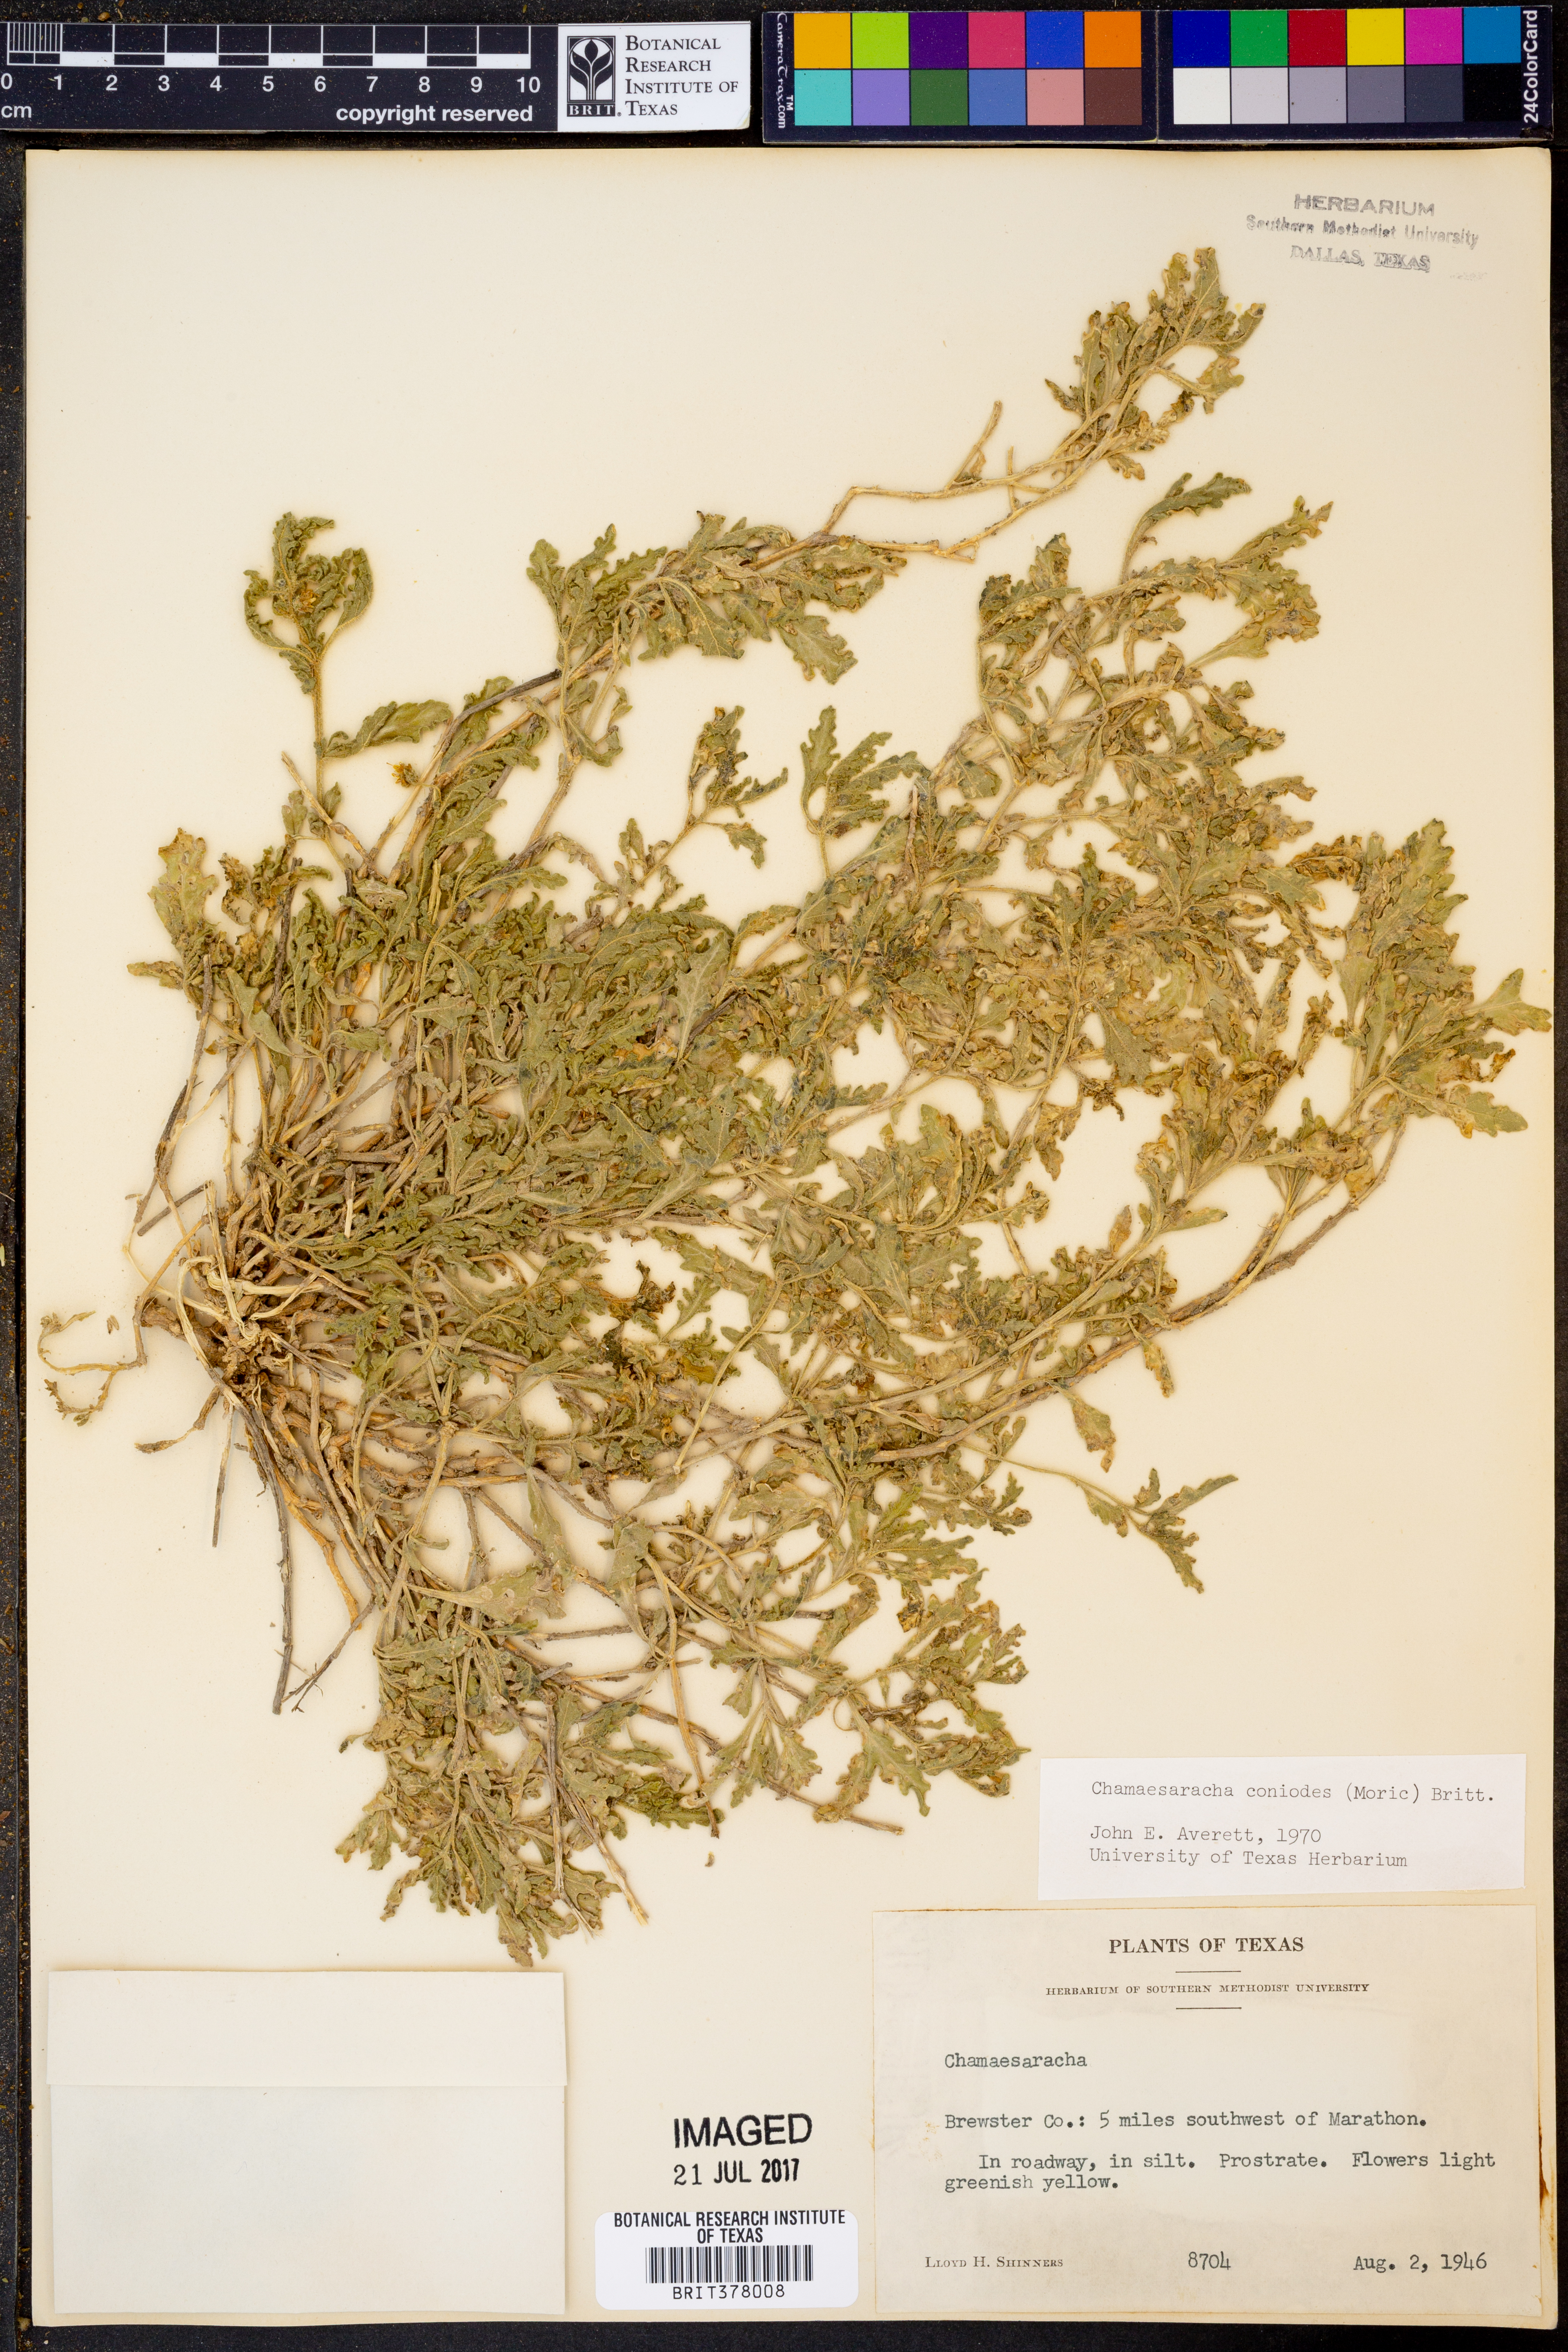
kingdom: Plantae
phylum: Tracheophyta
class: Magnoliopsida
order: Solanales
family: Solanaceae
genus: Chamaesaracha
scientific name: Chamaesaracha coniodes
